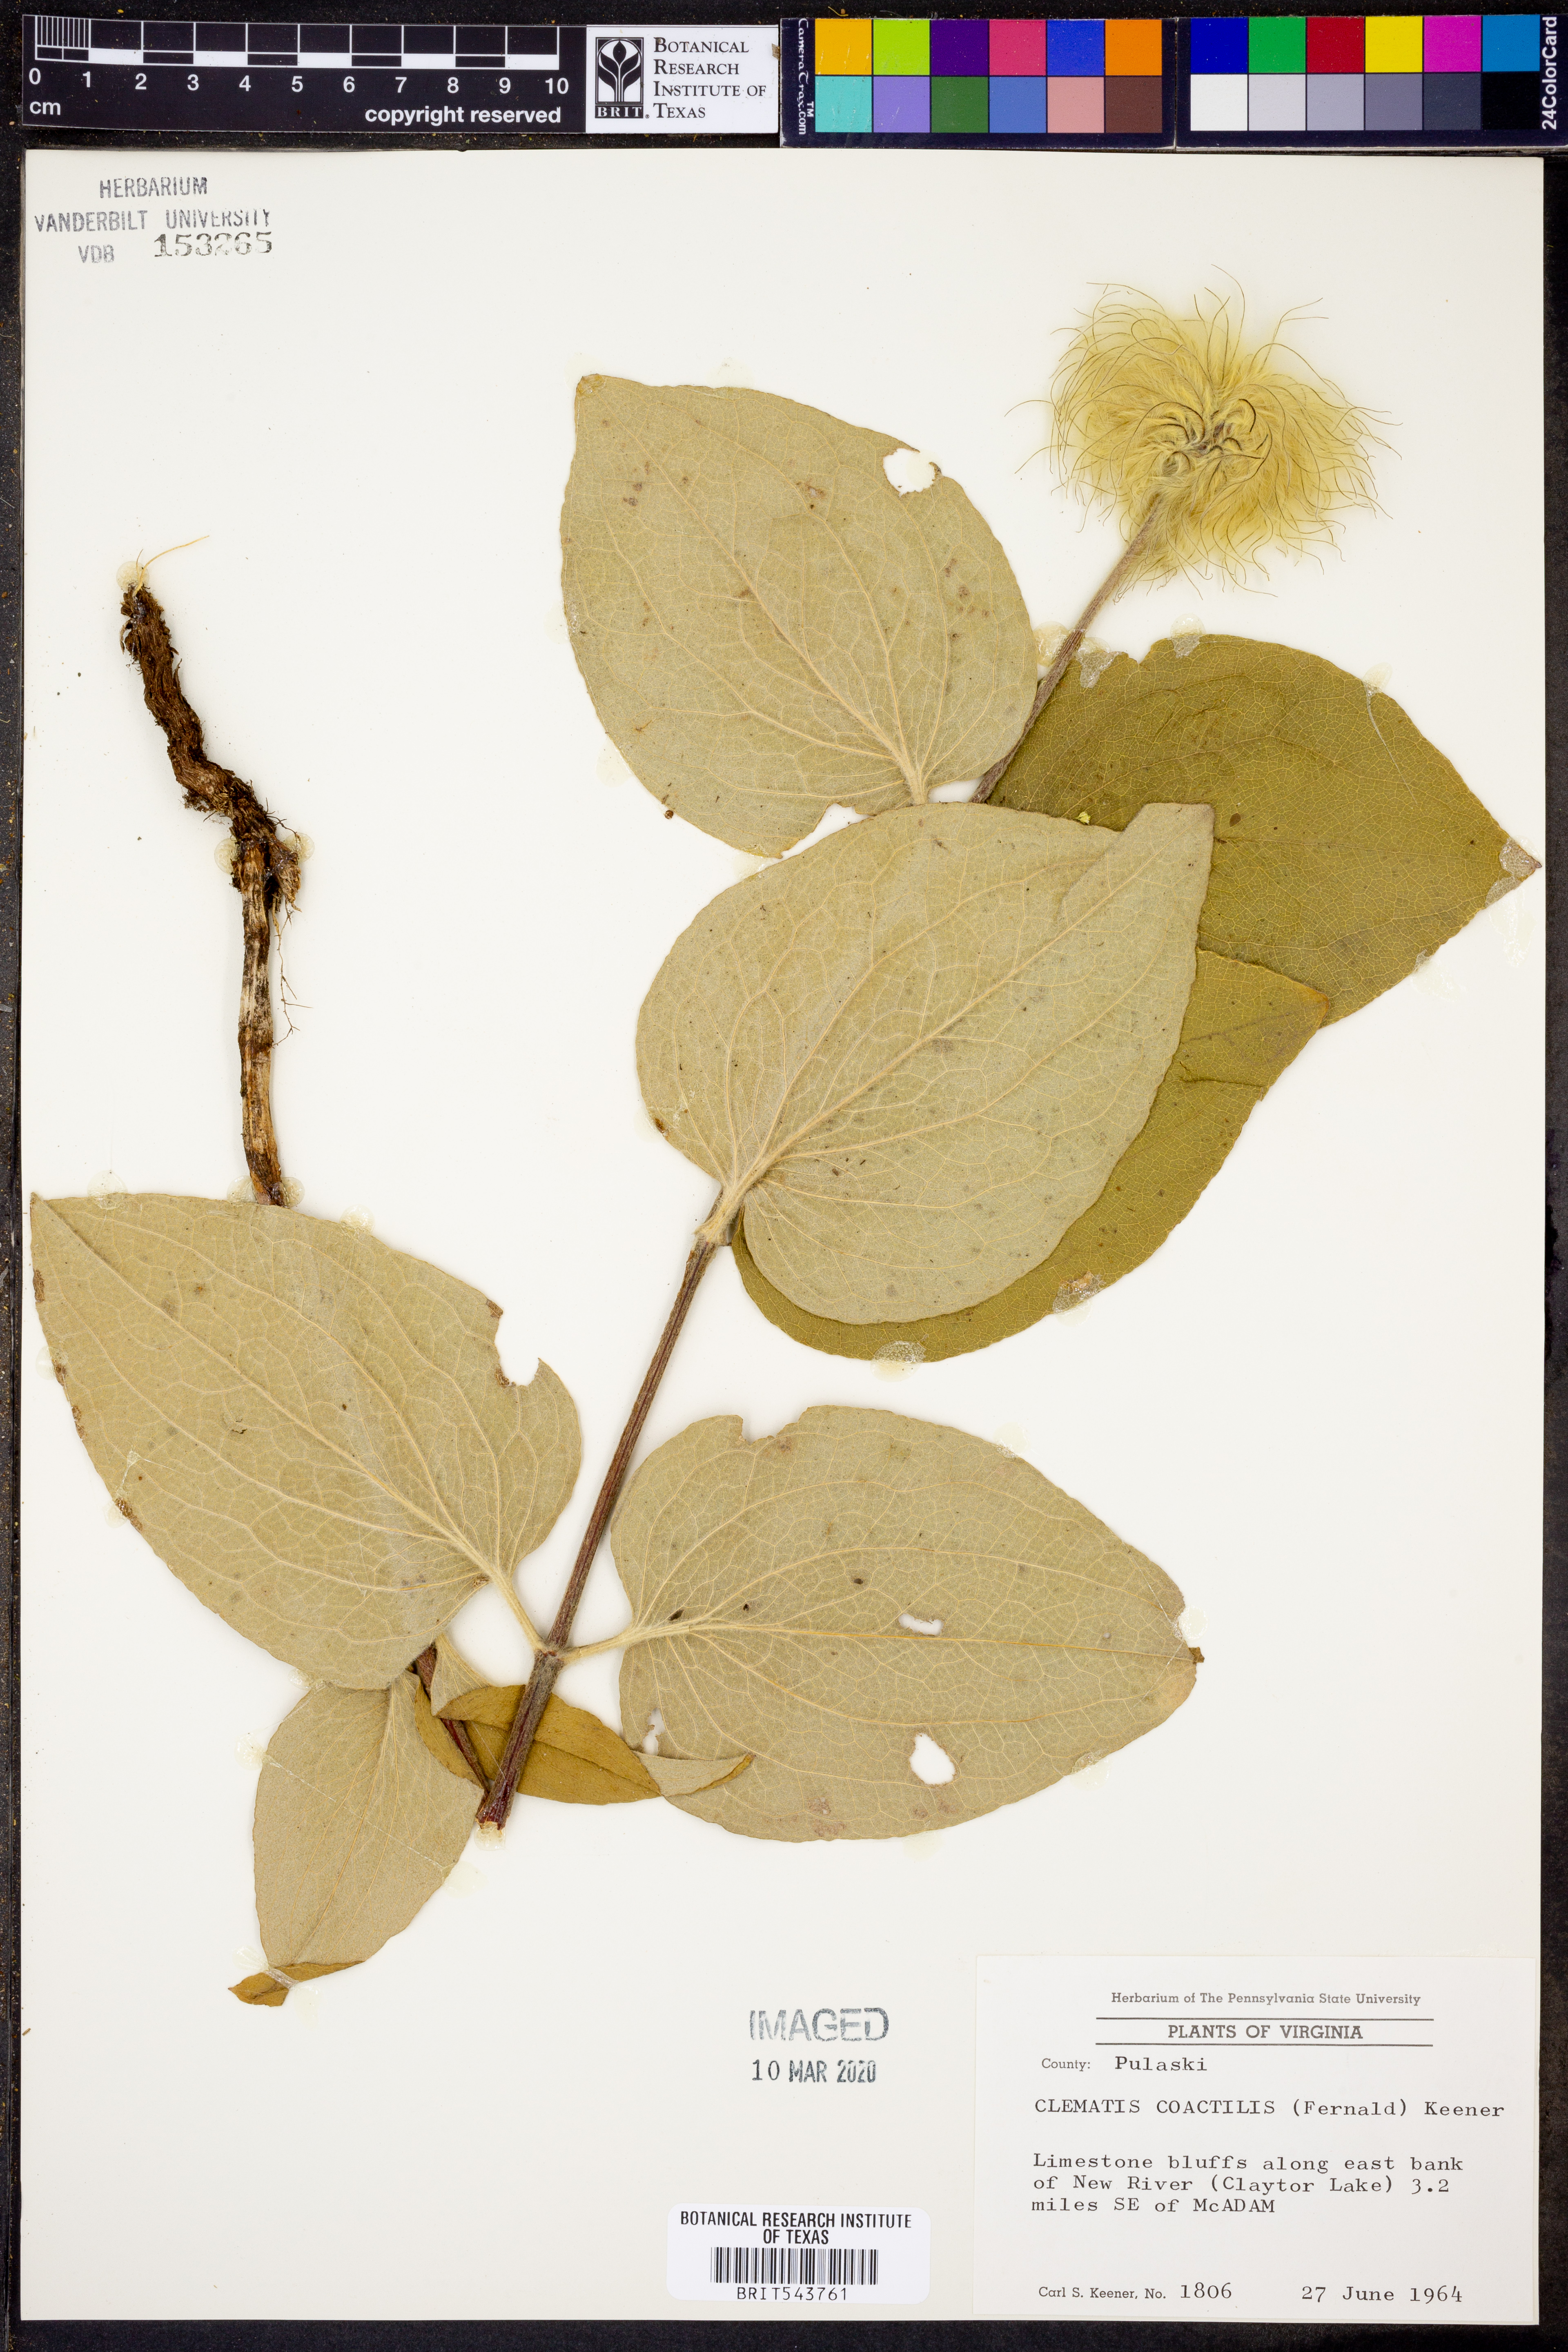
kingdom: Plantae
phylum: Tracheophyta
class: Magnoliopsida
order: Ranunculales
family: Ranunculaceae
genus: Clematis
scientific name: Clematis coactilis
